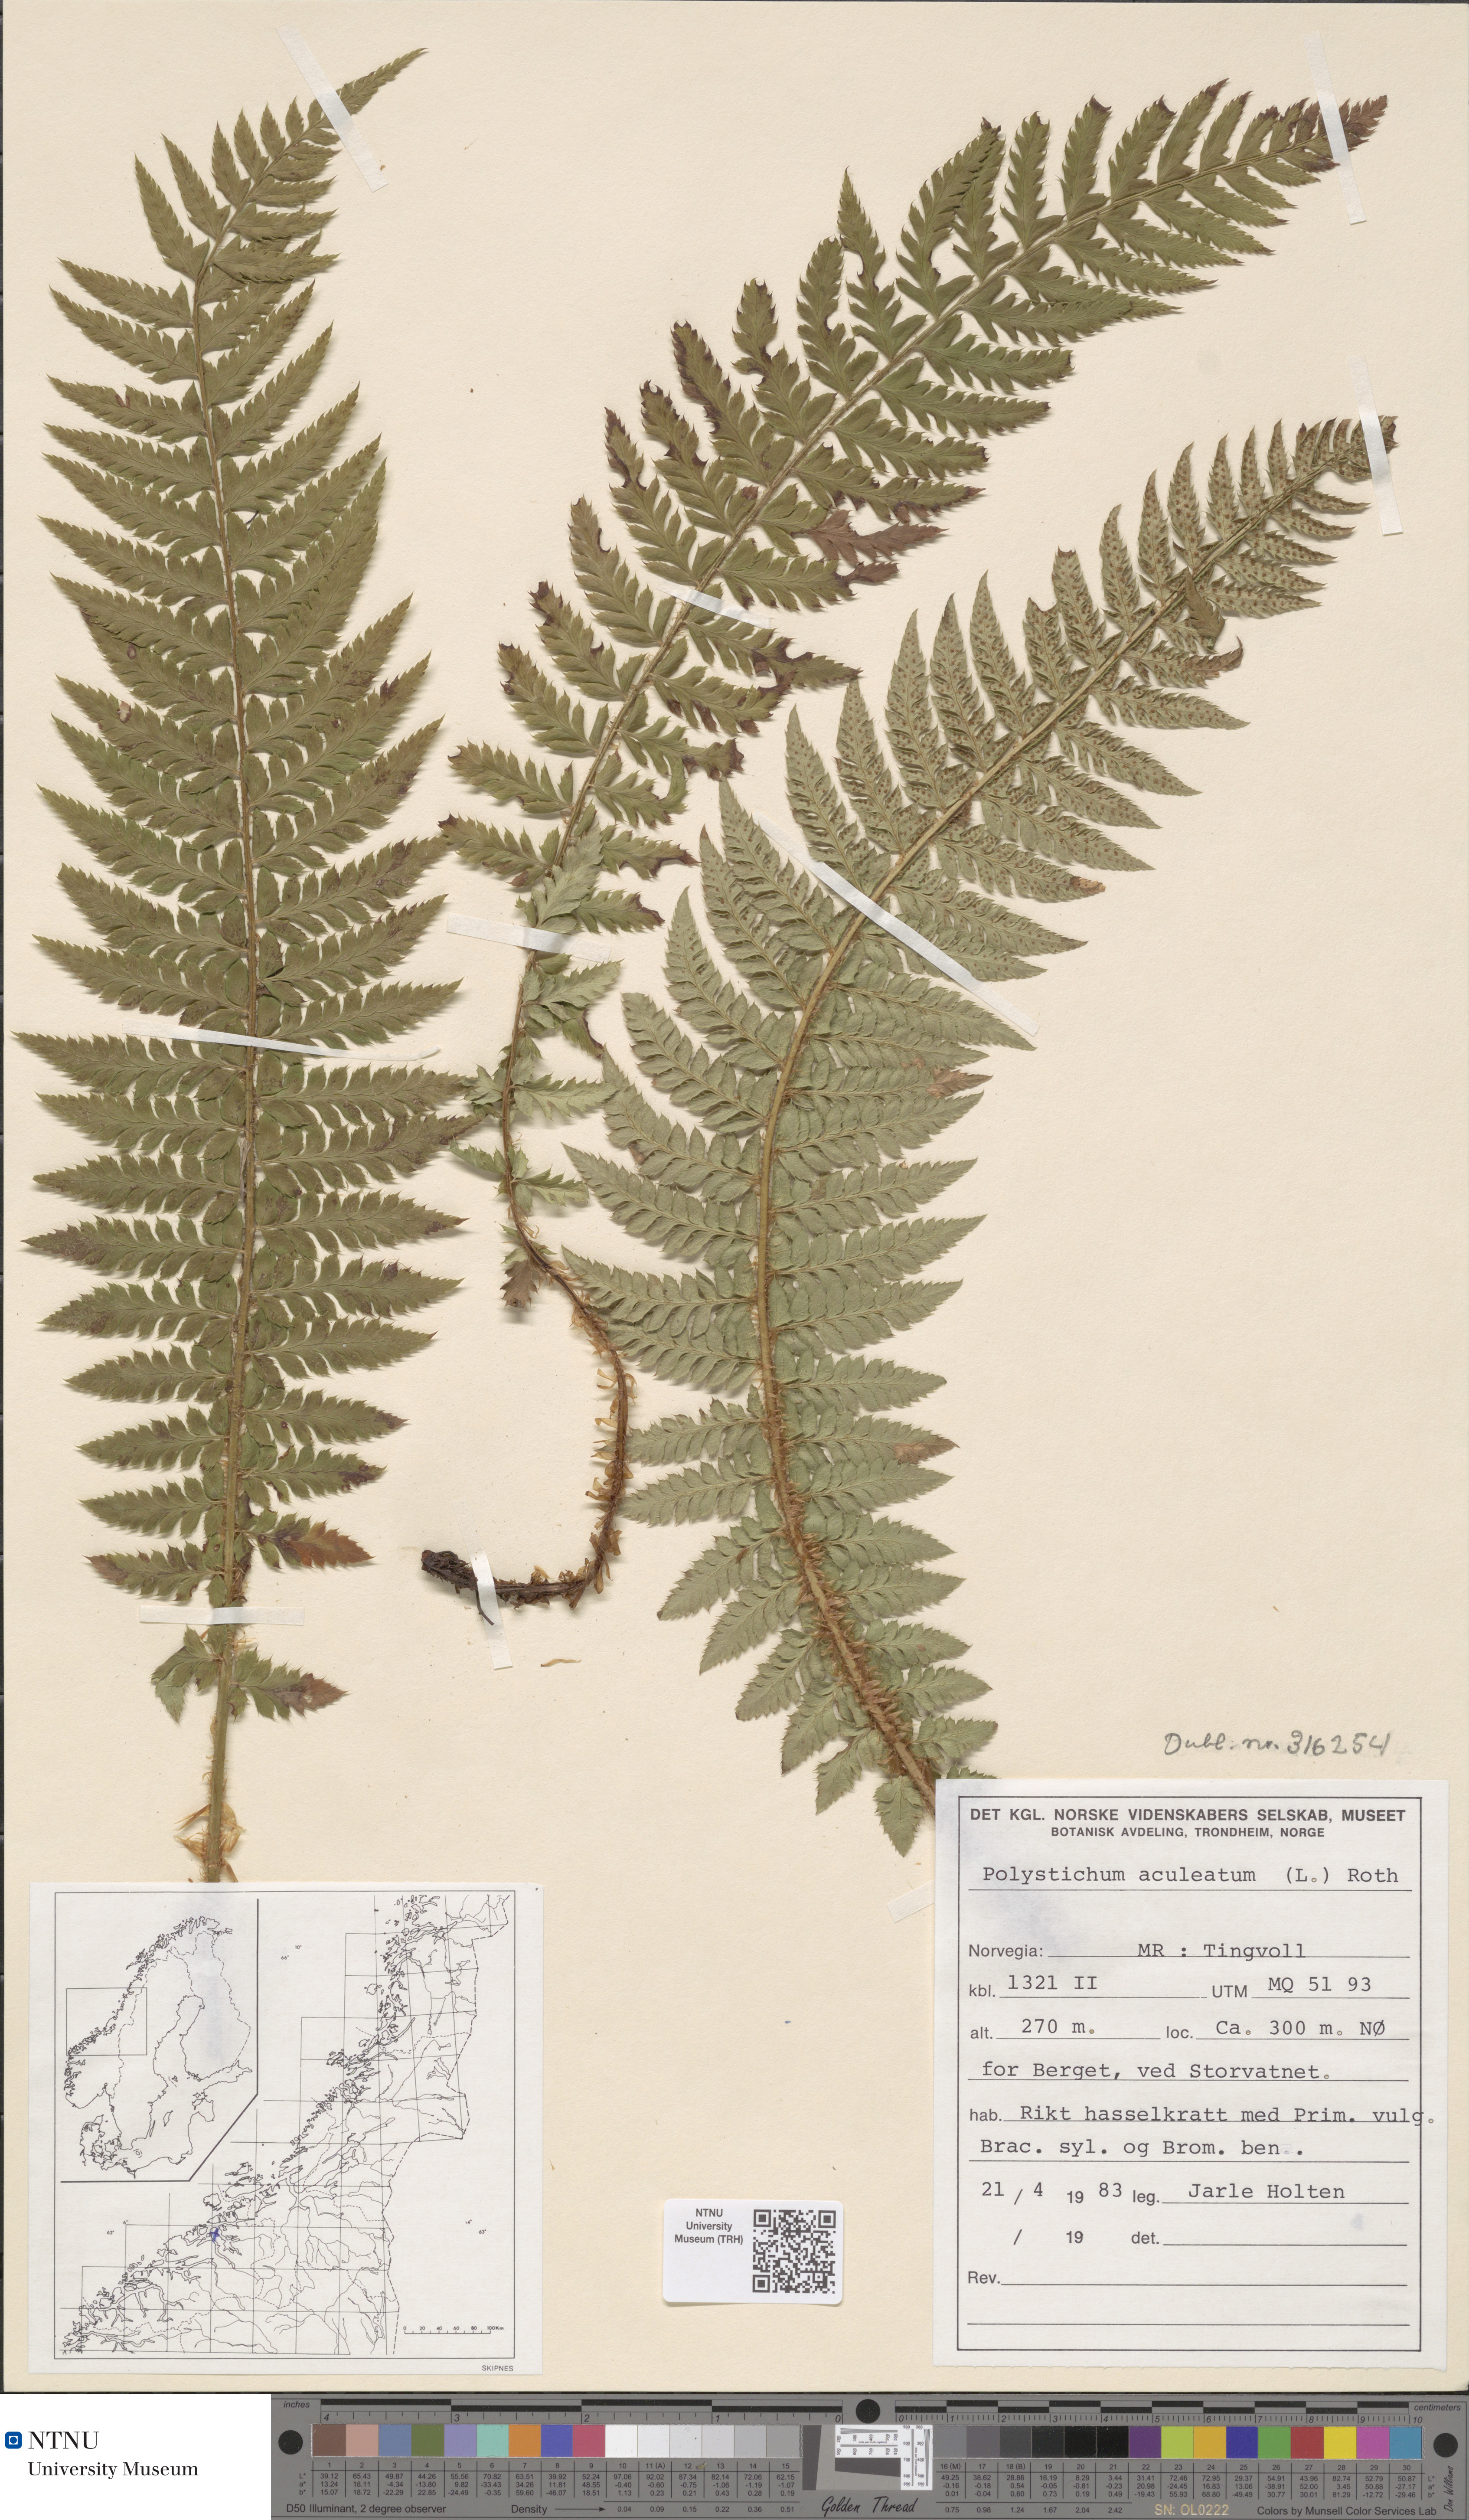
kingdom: Plantae
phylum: Tracheophyta
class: Polypodiopsida
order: Polypodiales
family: Dryopteridaceae
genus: Polystichum
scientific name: Polystichum aculeatum
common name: Hard shield-fern
